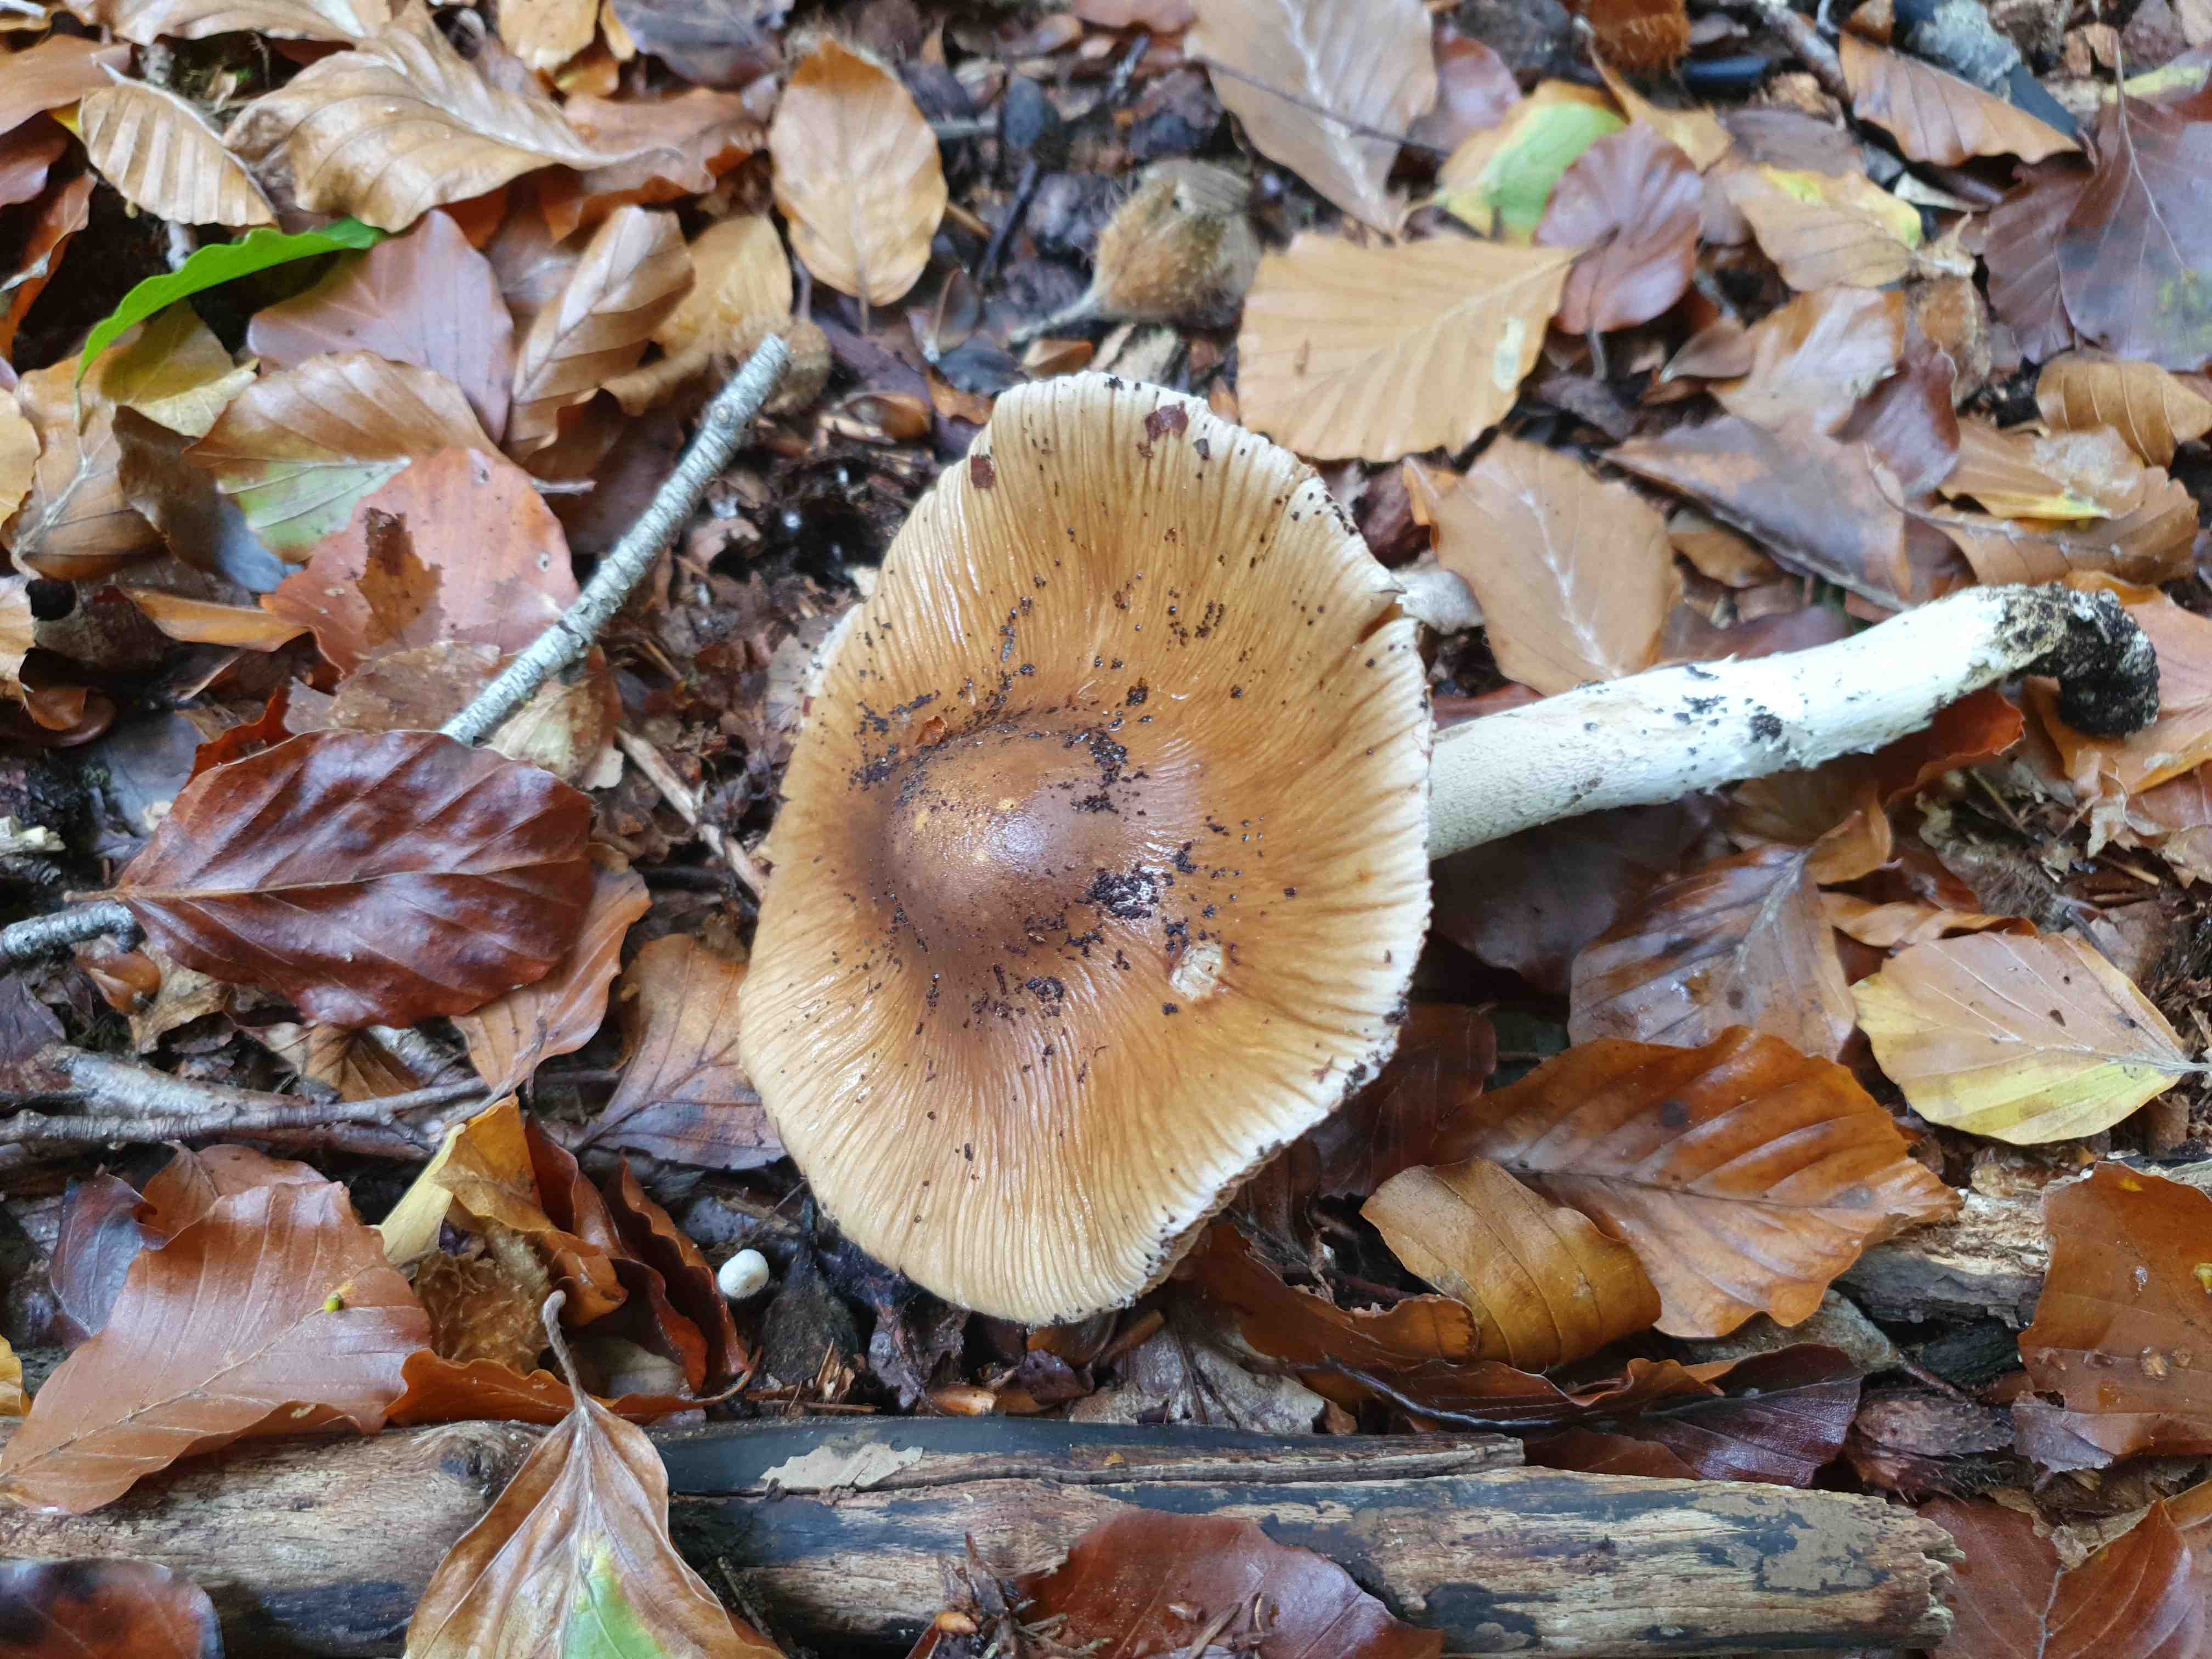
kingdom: Fungi
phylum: Basidiomycota
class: Agaricomycetes
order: Agaricales
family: Cortinariaceae
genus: Cortinarius
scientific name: Cortinarius elatior
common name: høj slørhat
